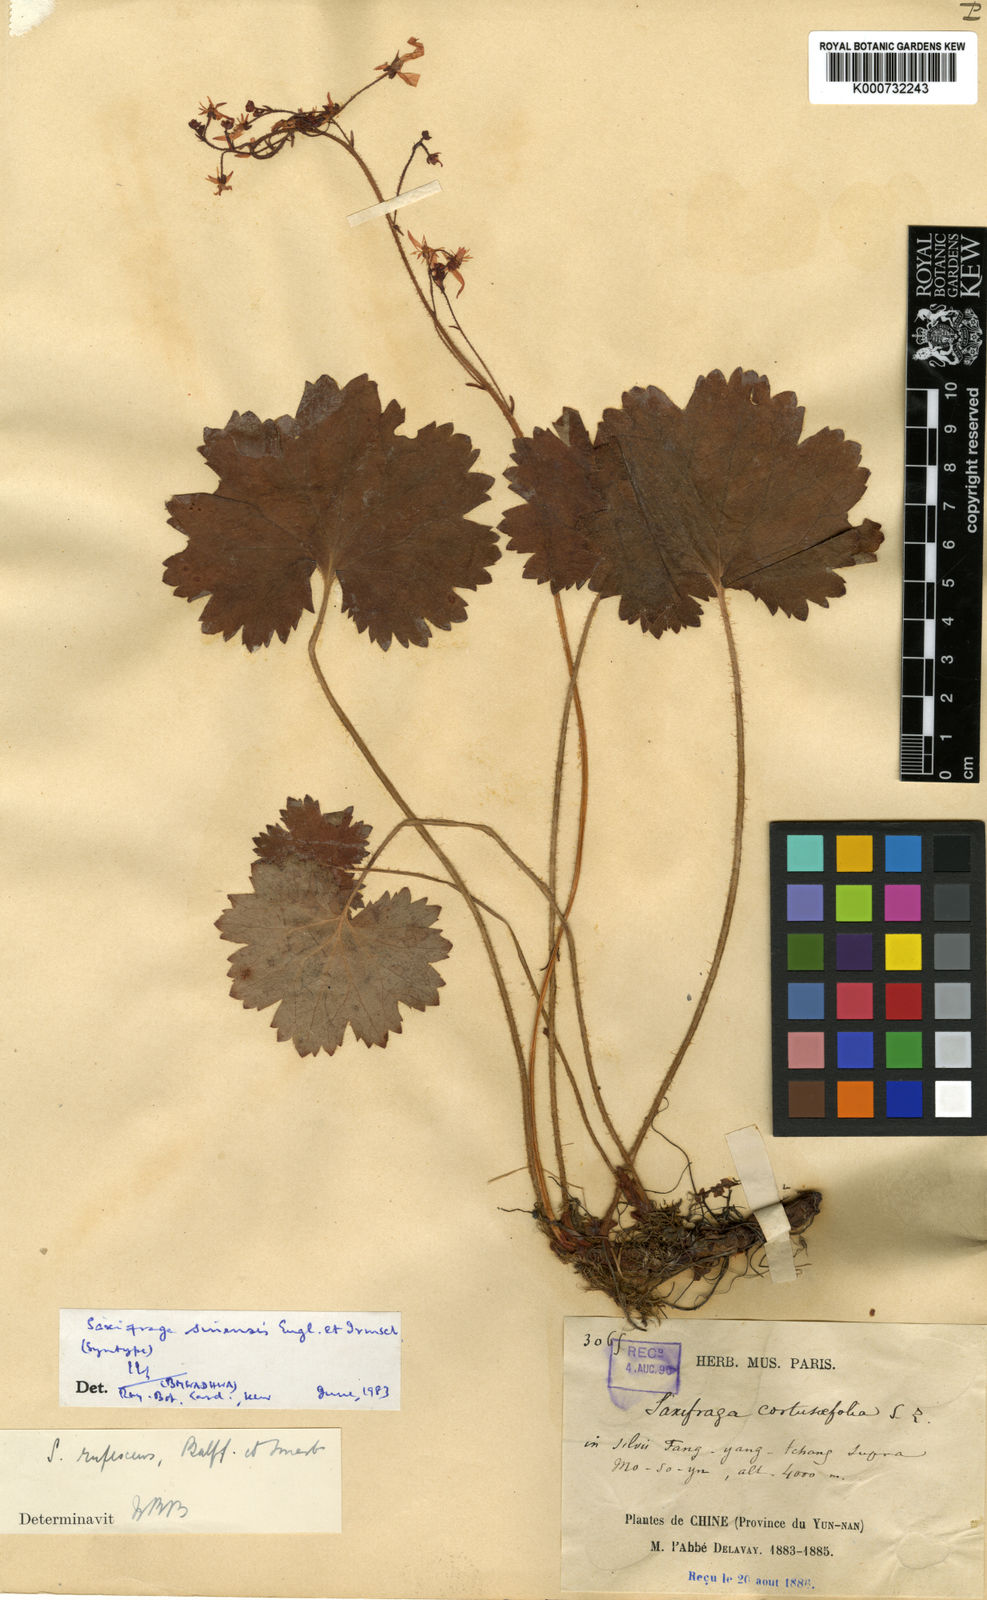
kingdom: Plantae
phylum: Tracheophyta
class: Magnoliopsida
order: Saxifragales
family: Saxifragaceae
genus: Saxifraga
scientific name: Saxifraga rufescens
